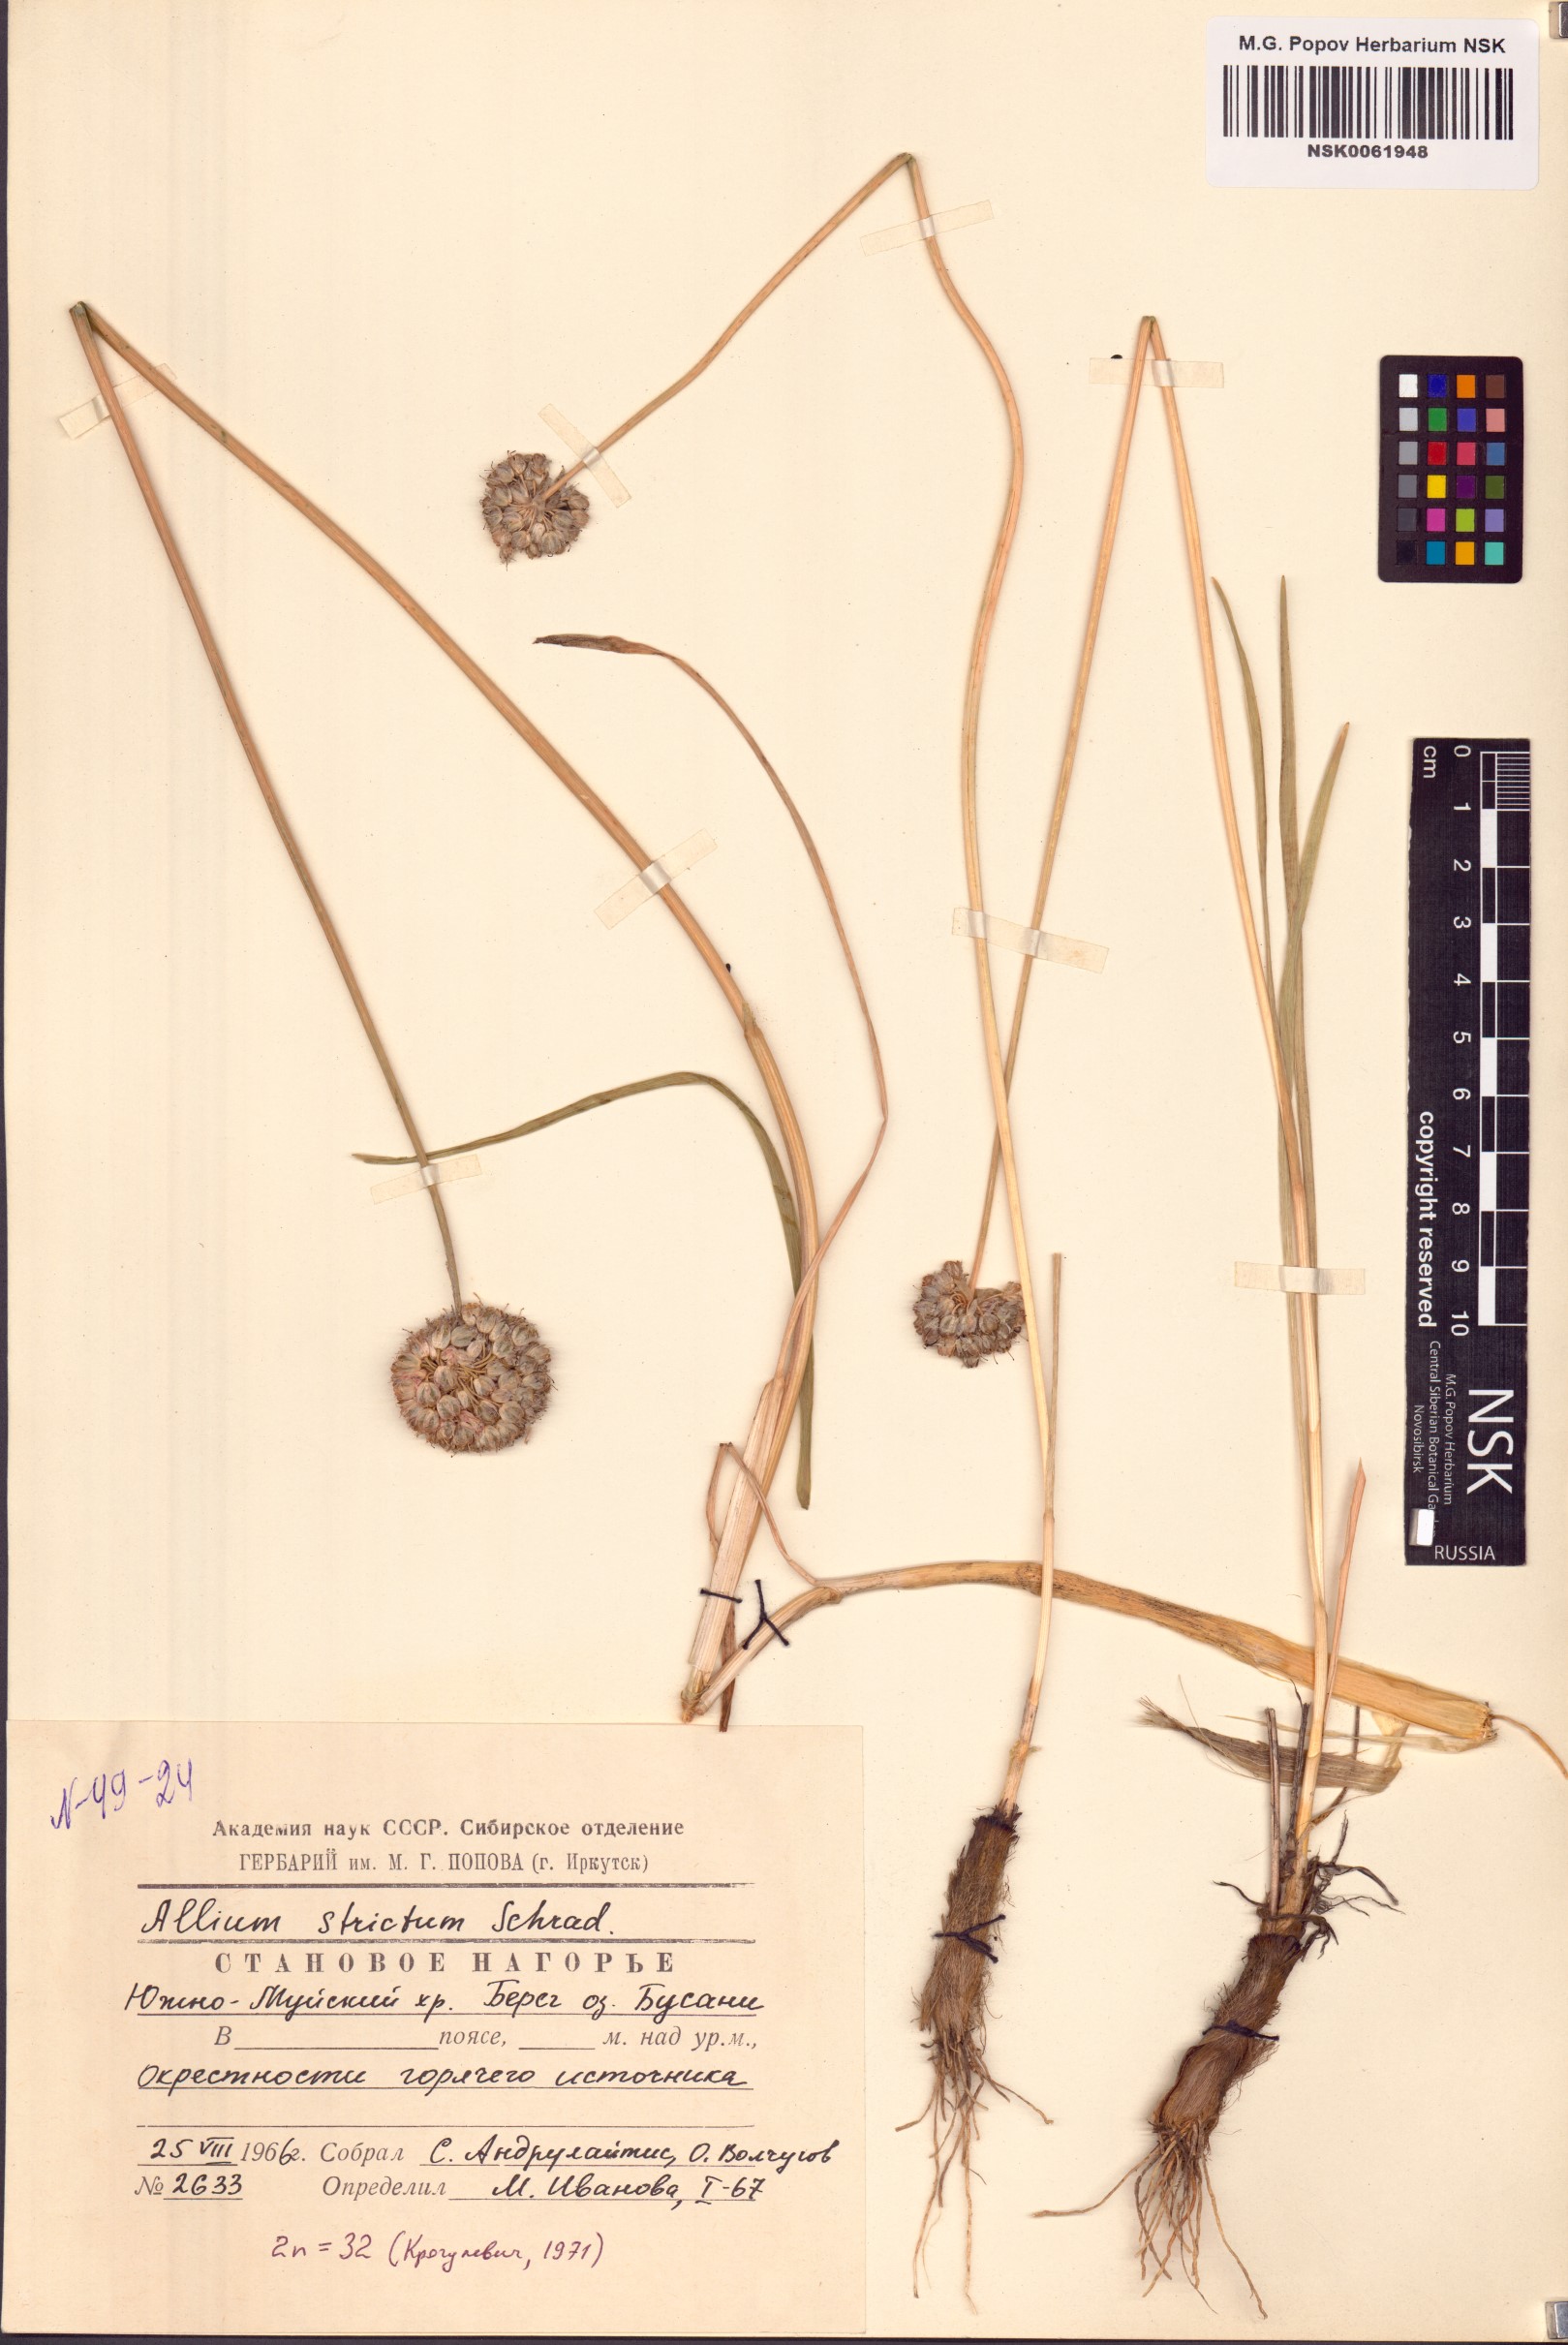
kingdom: Plantae
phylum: Tracheophyta
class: Liliopsida
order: Asparagales
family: Amaryllidaceae
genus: Allium
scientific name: Allium strictum
